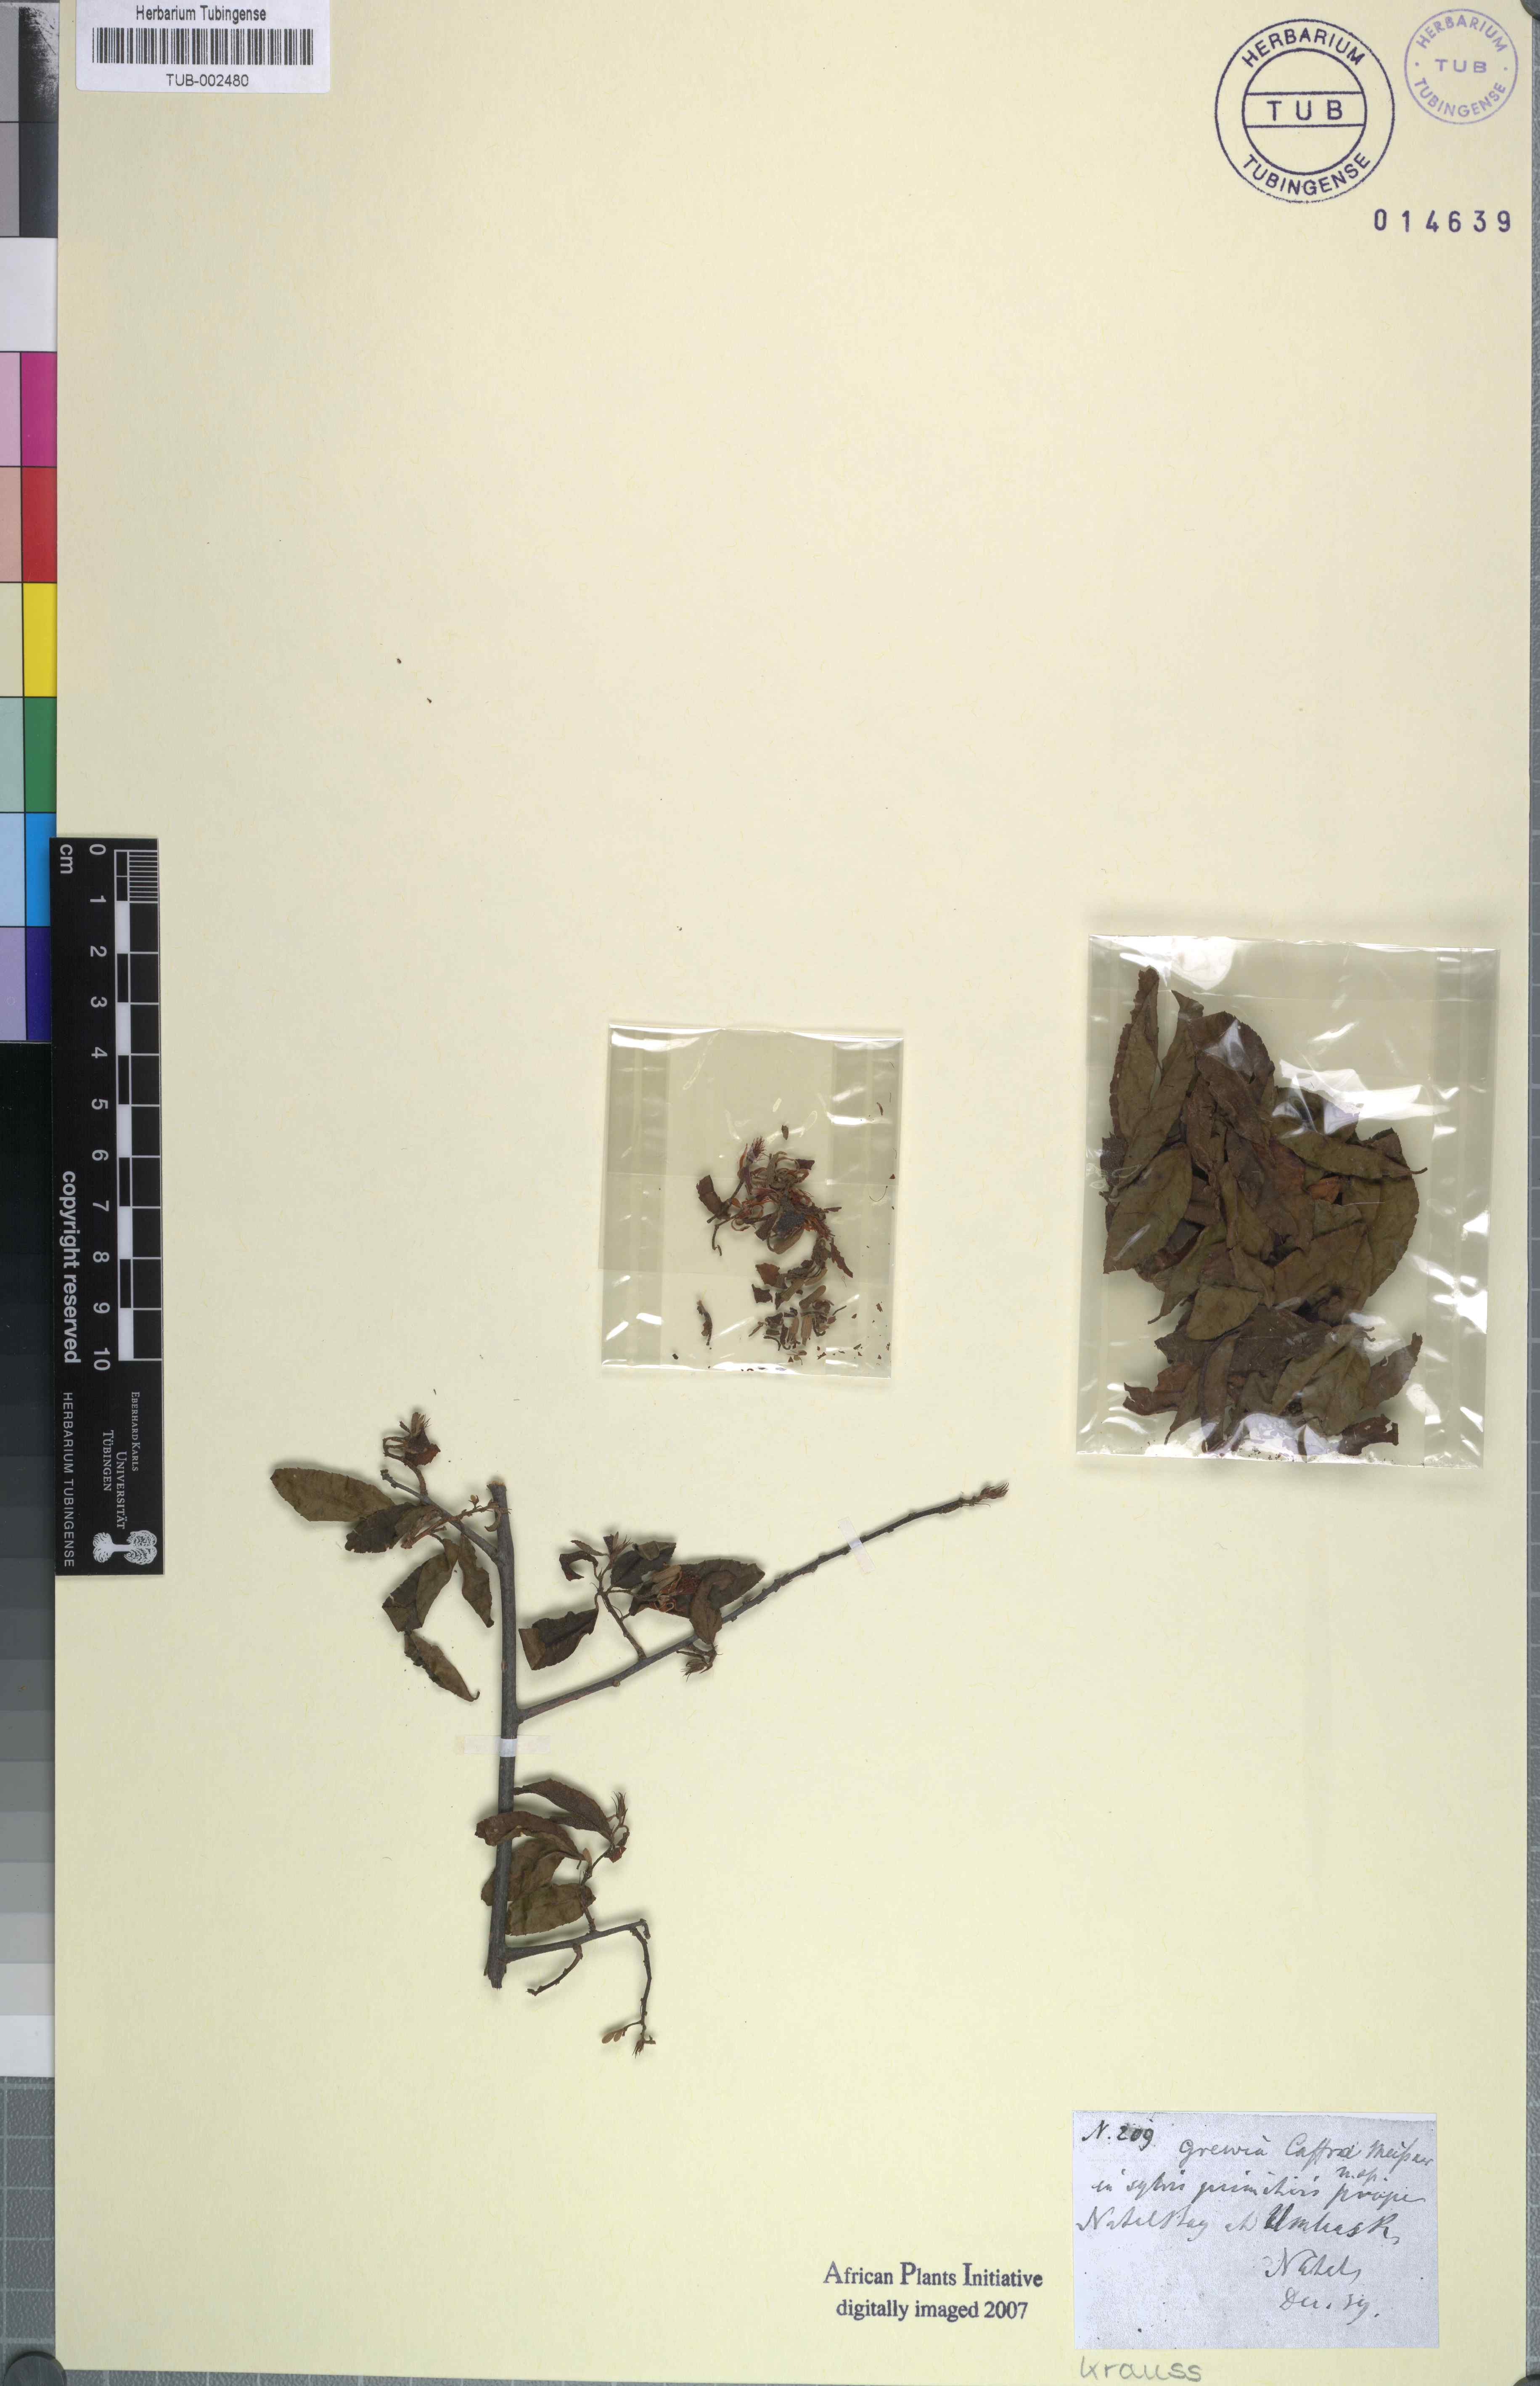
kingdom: Plantae
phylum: Tracheophyta
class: Magnoliopsida
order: Malvales
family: Malvaceae
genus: Grewia
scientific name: Grewia caffra
